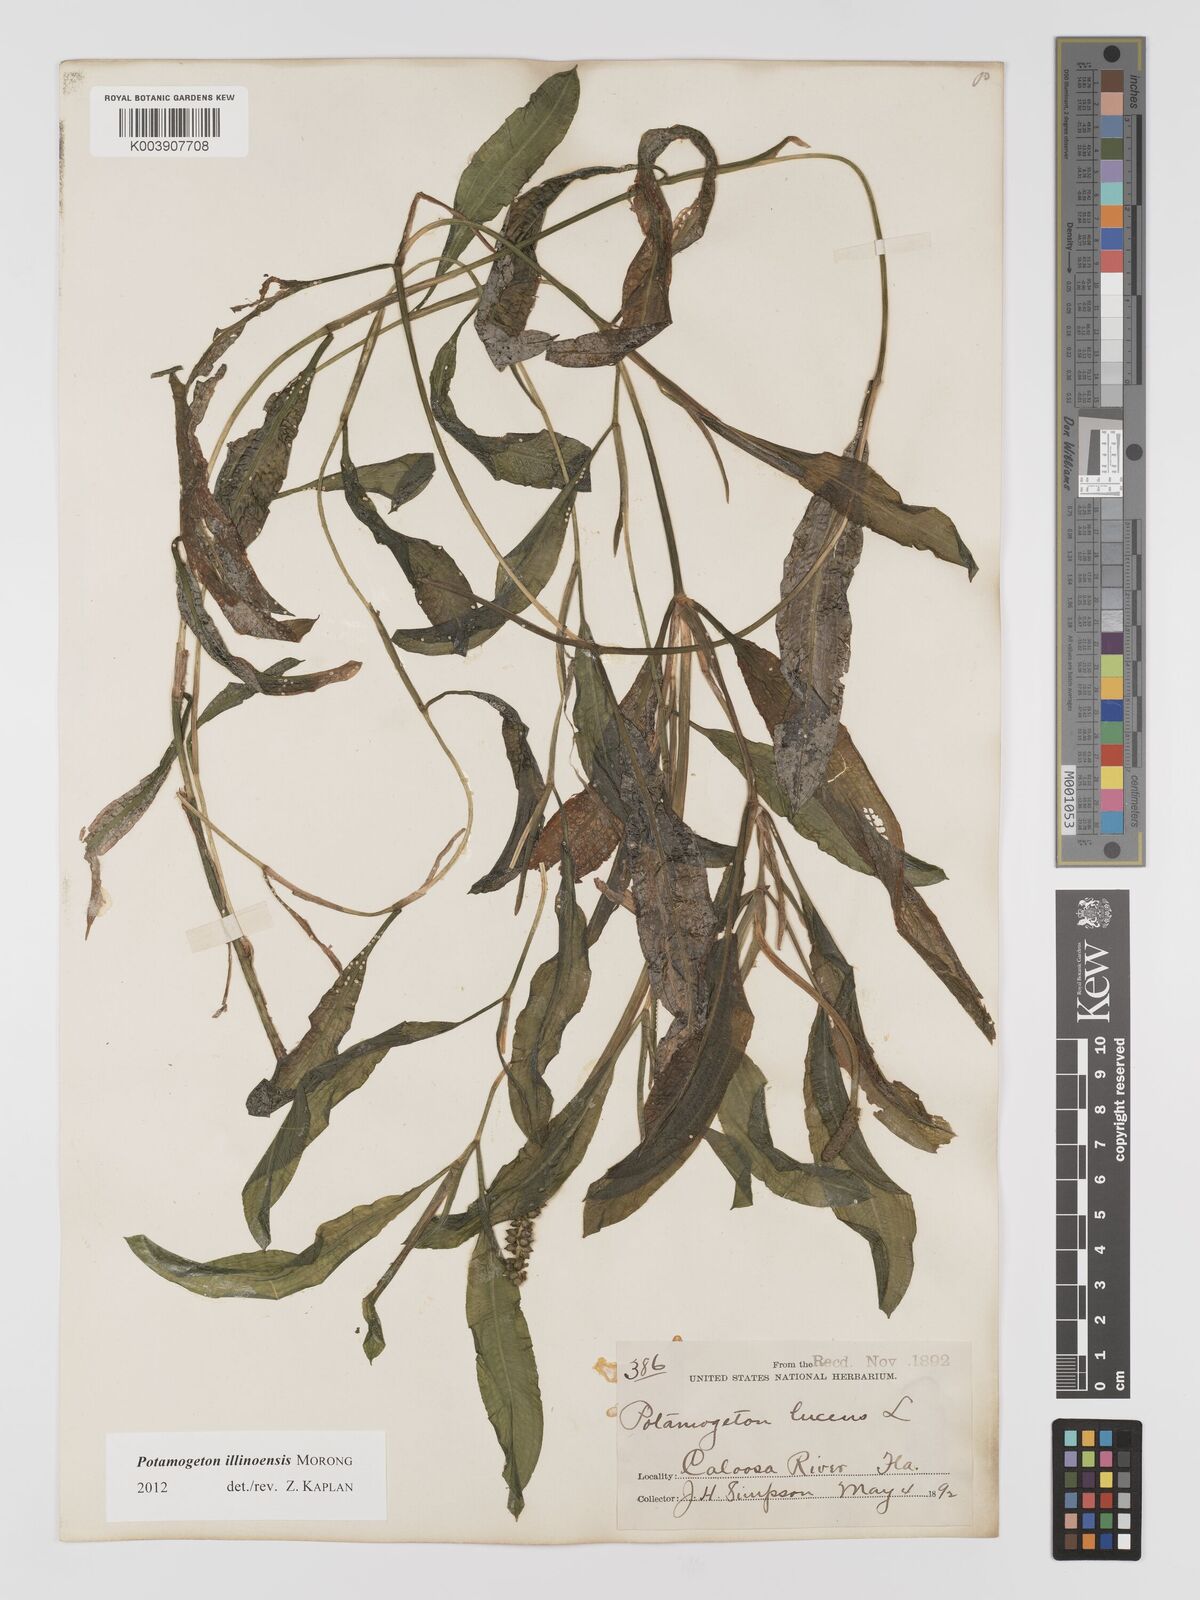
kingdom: Plantae
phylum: Tracheophyta
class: Liliopsida
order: Alismatales
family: Potamogetonaceae
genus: Potamogeton
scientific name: Potamogeton illinoensis
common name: Illinois pondweed
